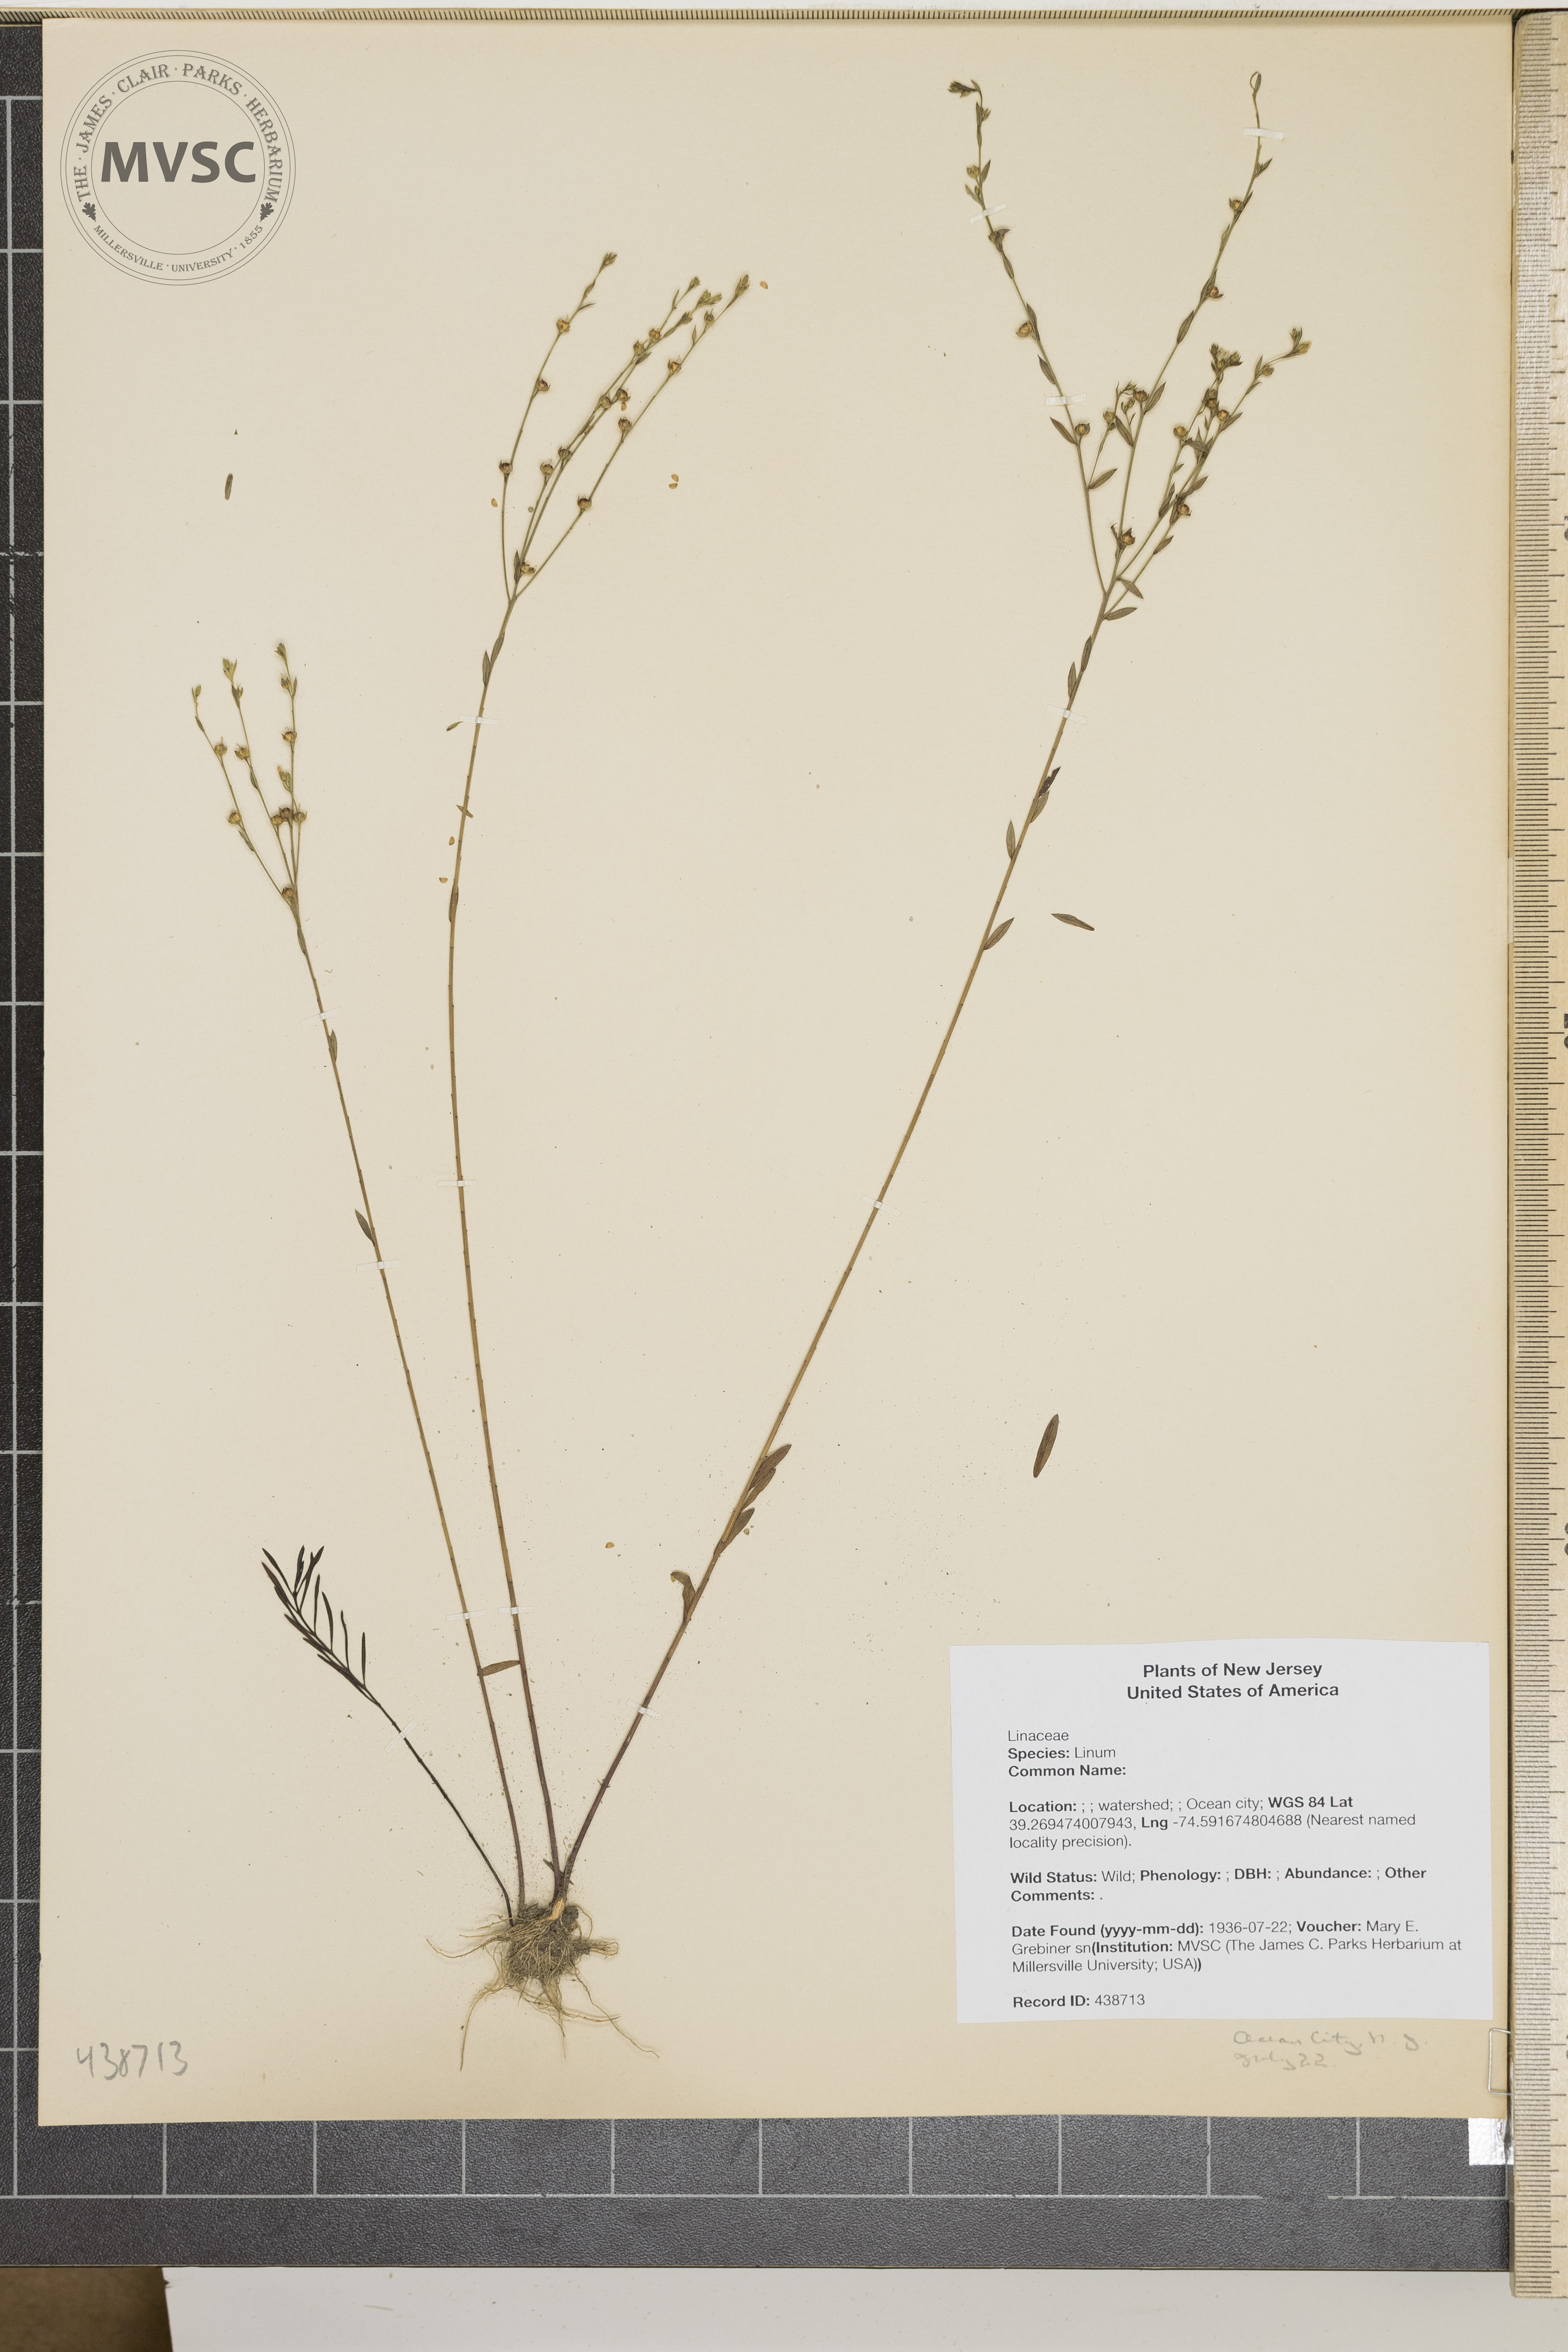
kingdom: Plantae
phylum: Tracheophyta
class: Magnoliopsida
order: Malpighiales
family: Linaceae
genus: Linum
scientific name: Linum sulcatum
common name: Grooved flax
